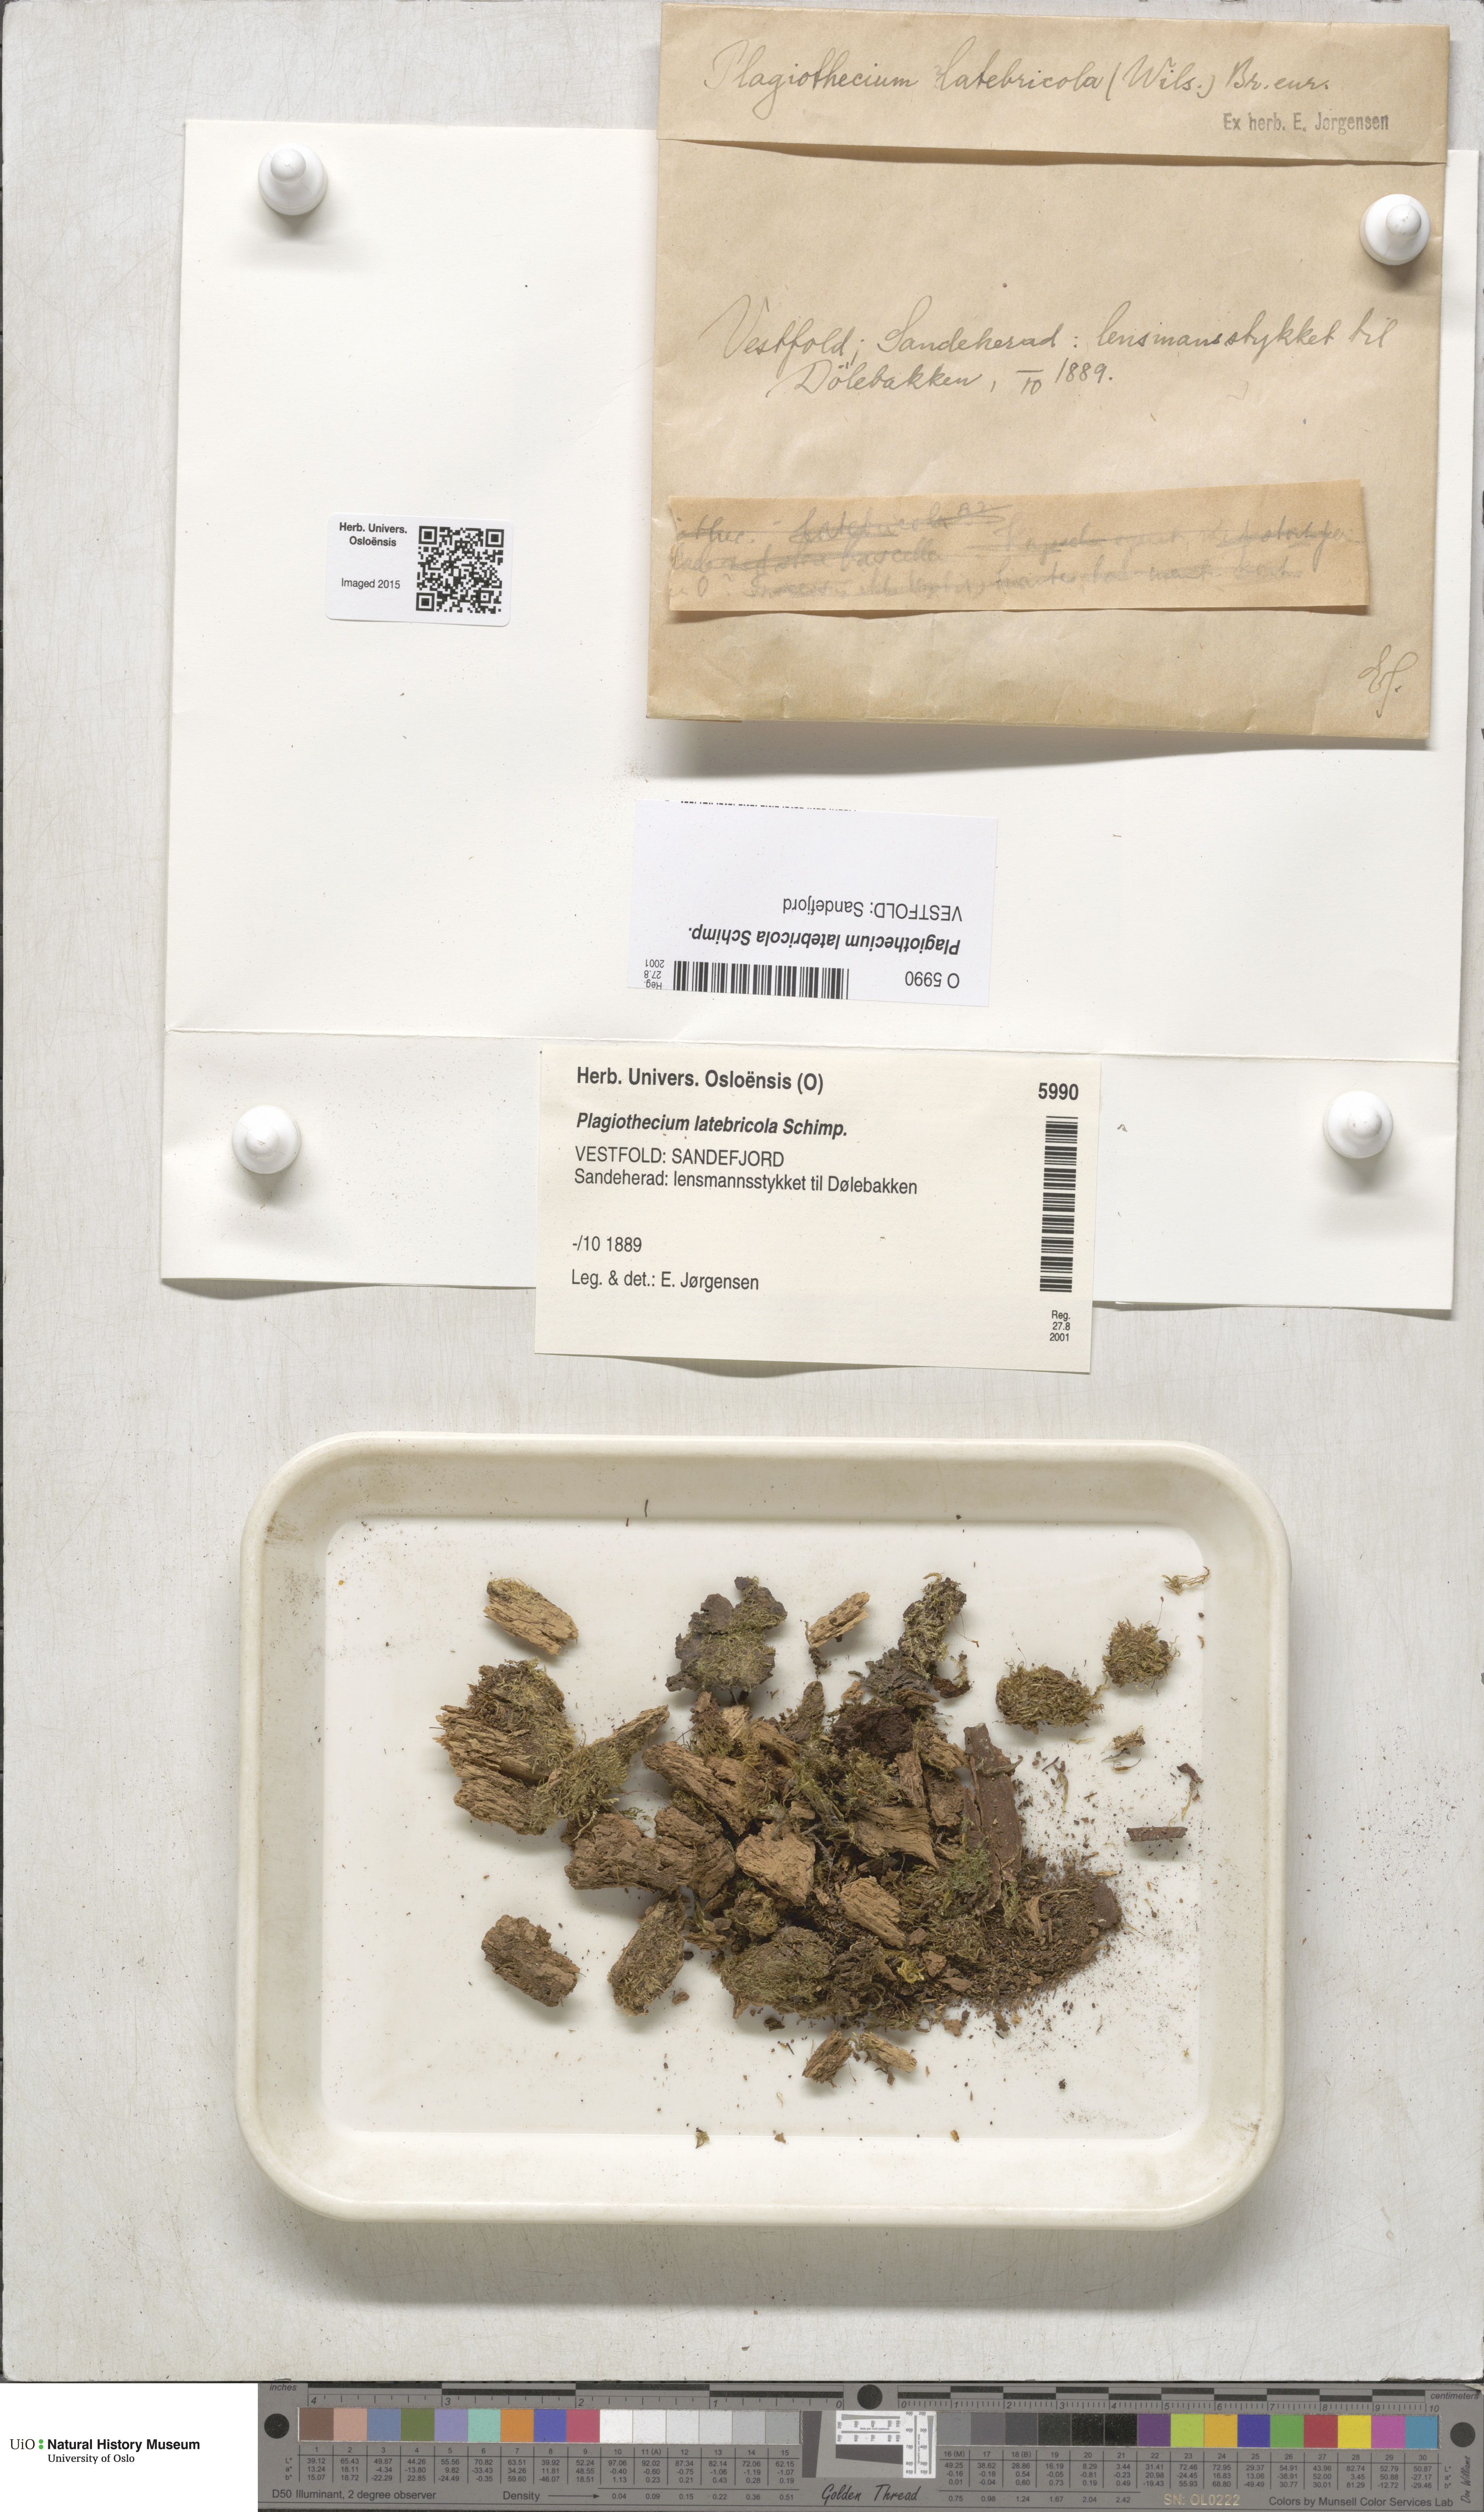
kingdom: Plantae
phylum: Bryophyta
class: Bryopsida
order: Hypnales
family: Plagiotheciaceae
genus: Plagiothecium
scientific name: Plagiothecium latebricola
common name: Alder silk moss
